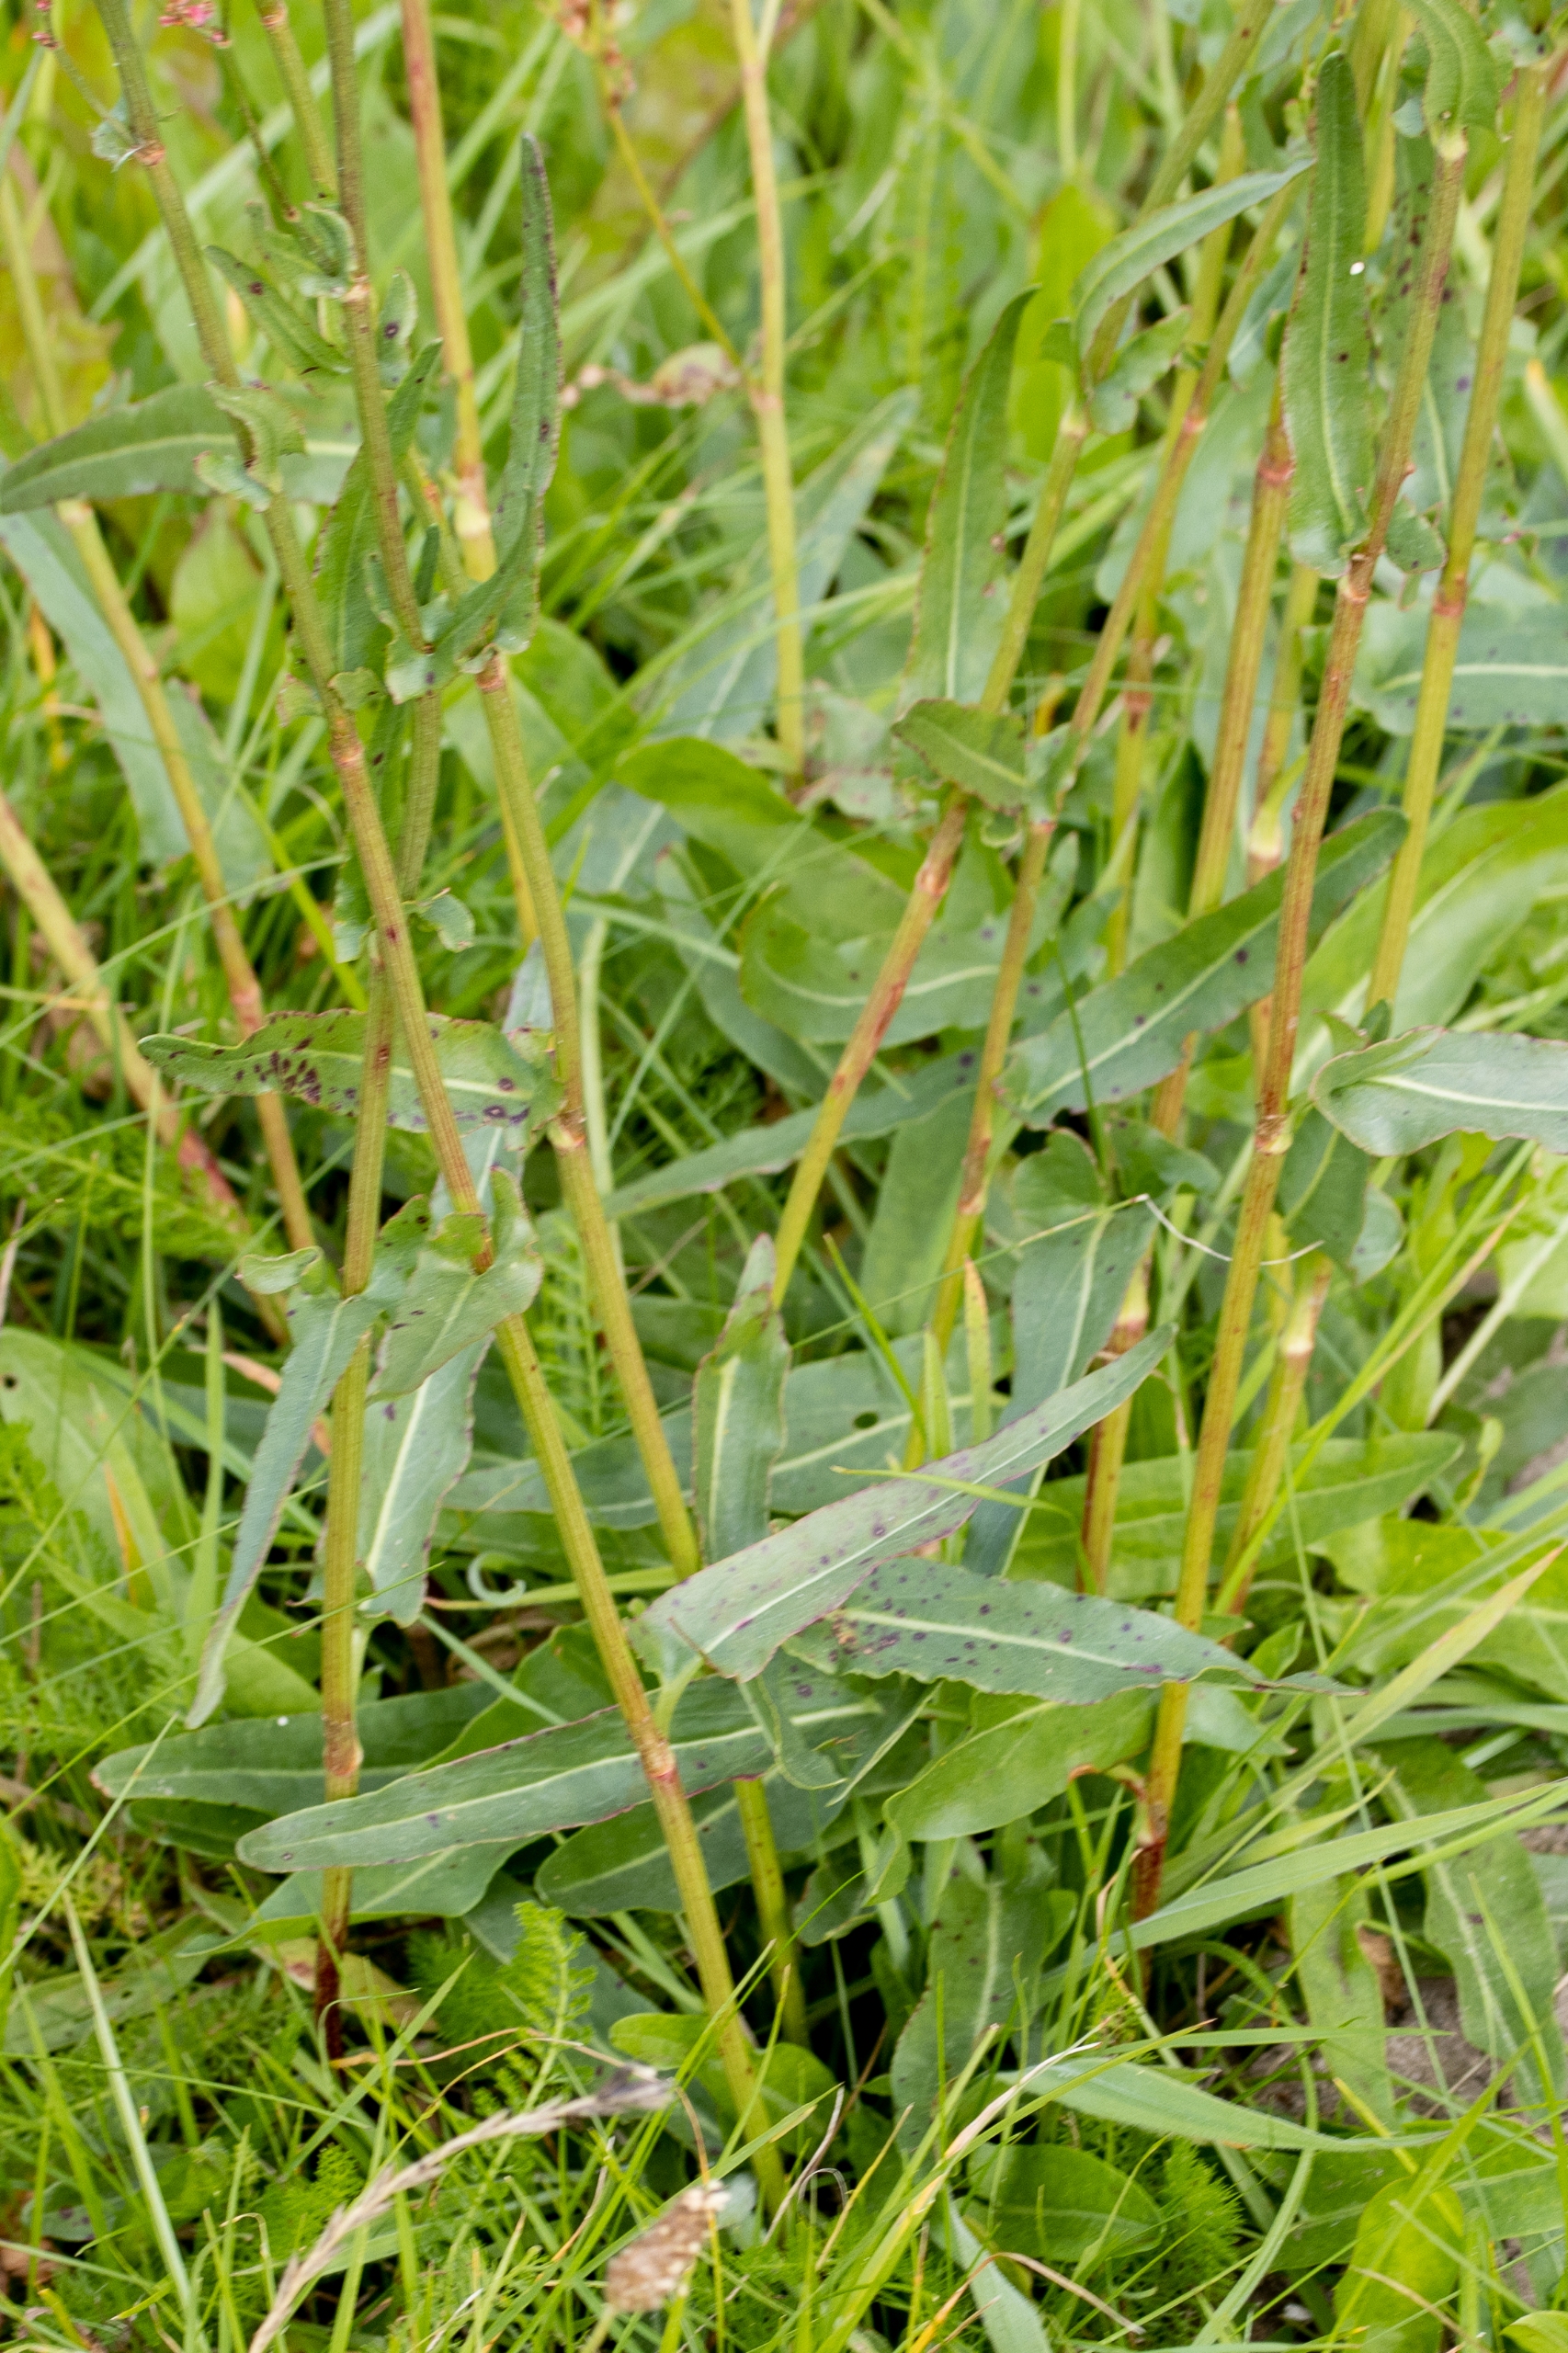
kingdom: Plantae
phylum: Tracheophyta
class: Magnoliopsida
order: Caryophyllales
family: Polygonaceae
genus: Rumex
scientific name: Rumex thyrsiflorus
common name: Dusk-syre
